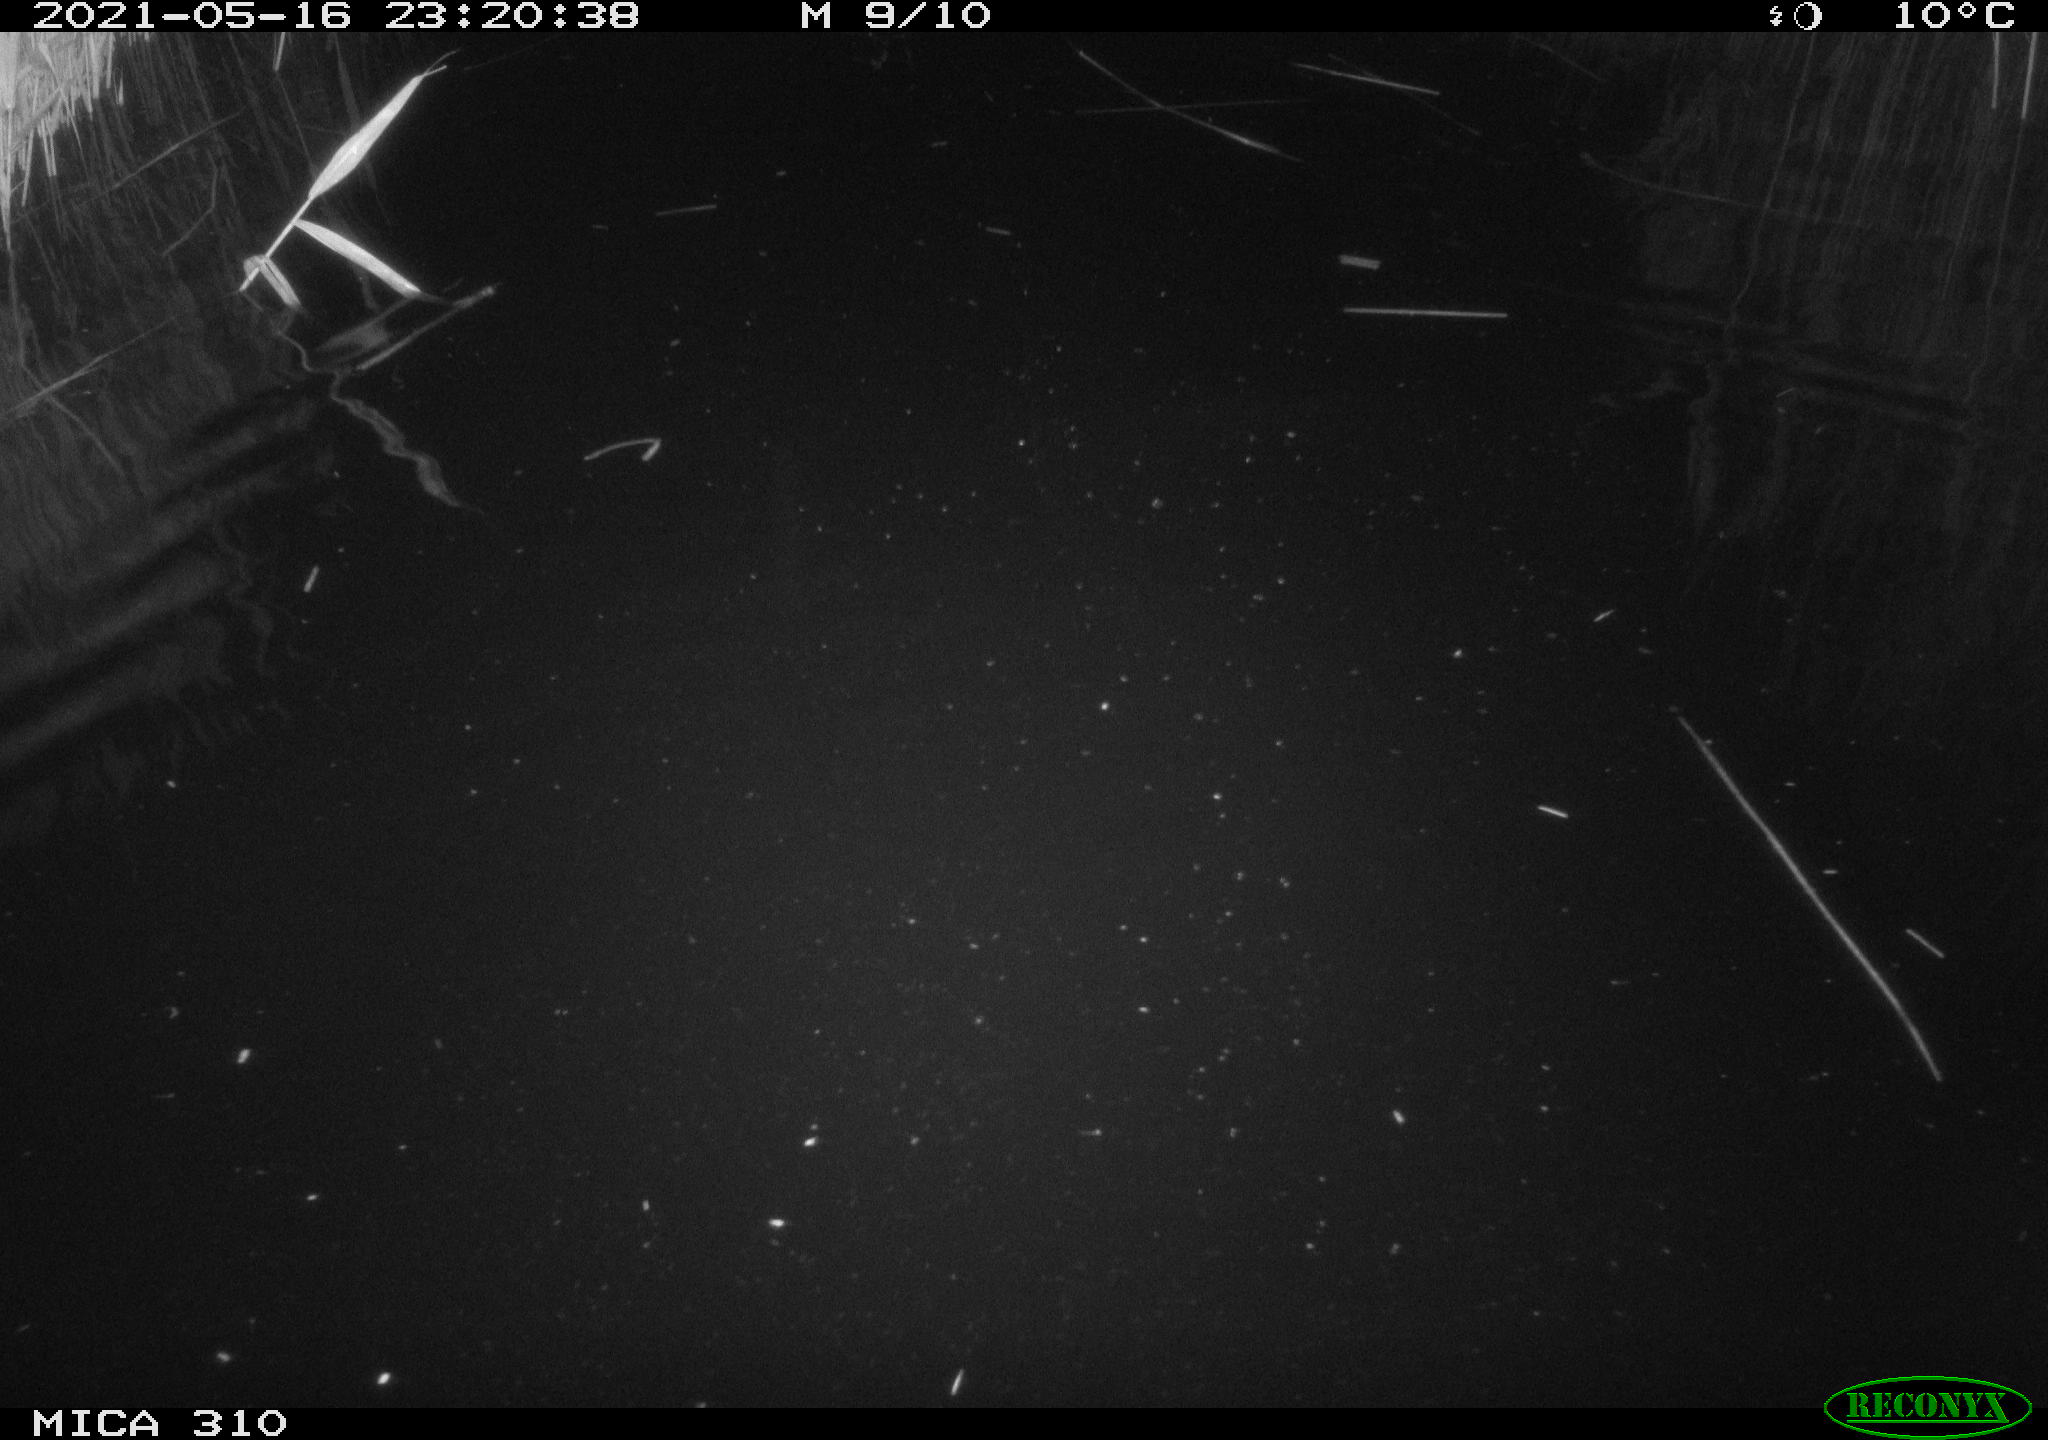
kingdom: Animalia
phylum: Chordata
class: Aves
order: Anseriformes
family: Anatidae
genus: Anas
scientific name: Anas platyrhynchos
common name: Mallard
